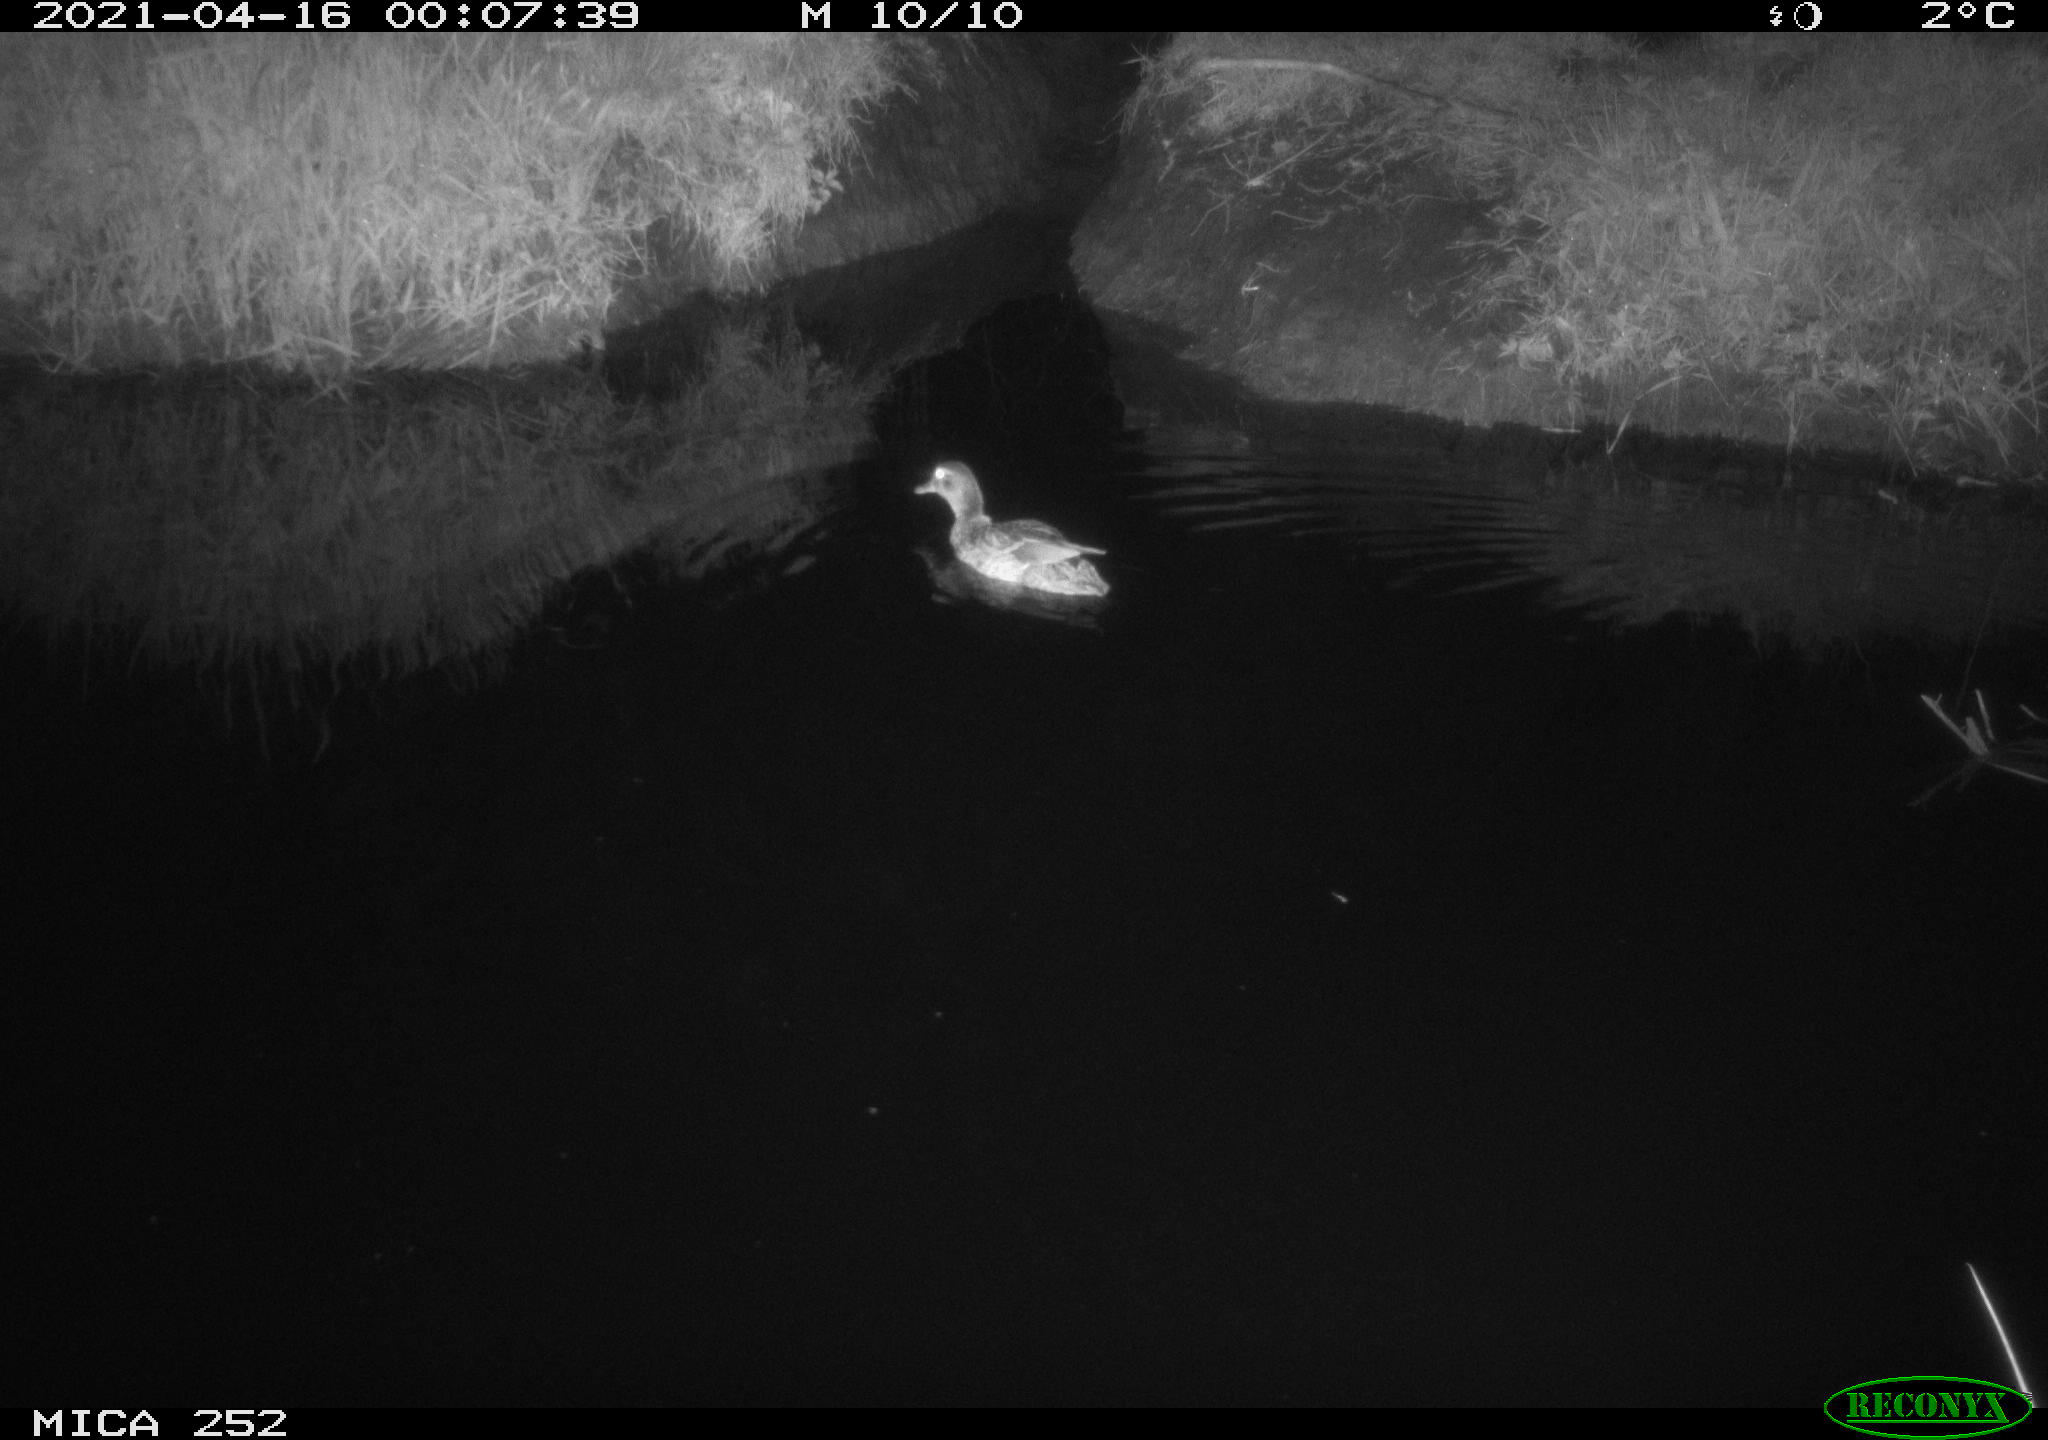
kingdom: Animalia
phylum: Chordata
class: Aves
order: Anseriformes
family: Anatidae
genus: Anas
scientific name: Anas platyrhynchos
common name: Mallard
